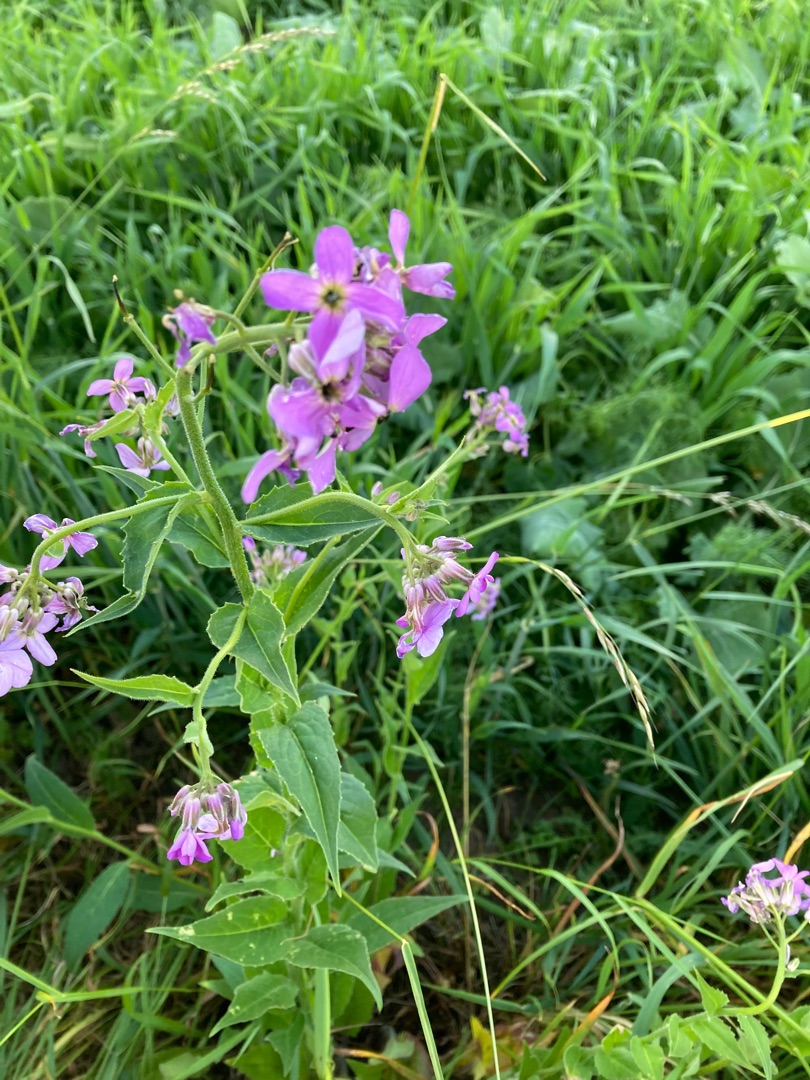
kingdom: Plantae
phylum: Tracheophyta
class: Magnoliopsida
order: Brassicales
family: Brassicaceae
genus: Hesperis
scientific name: Hesperis matronalis
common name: Aftenstjerne
